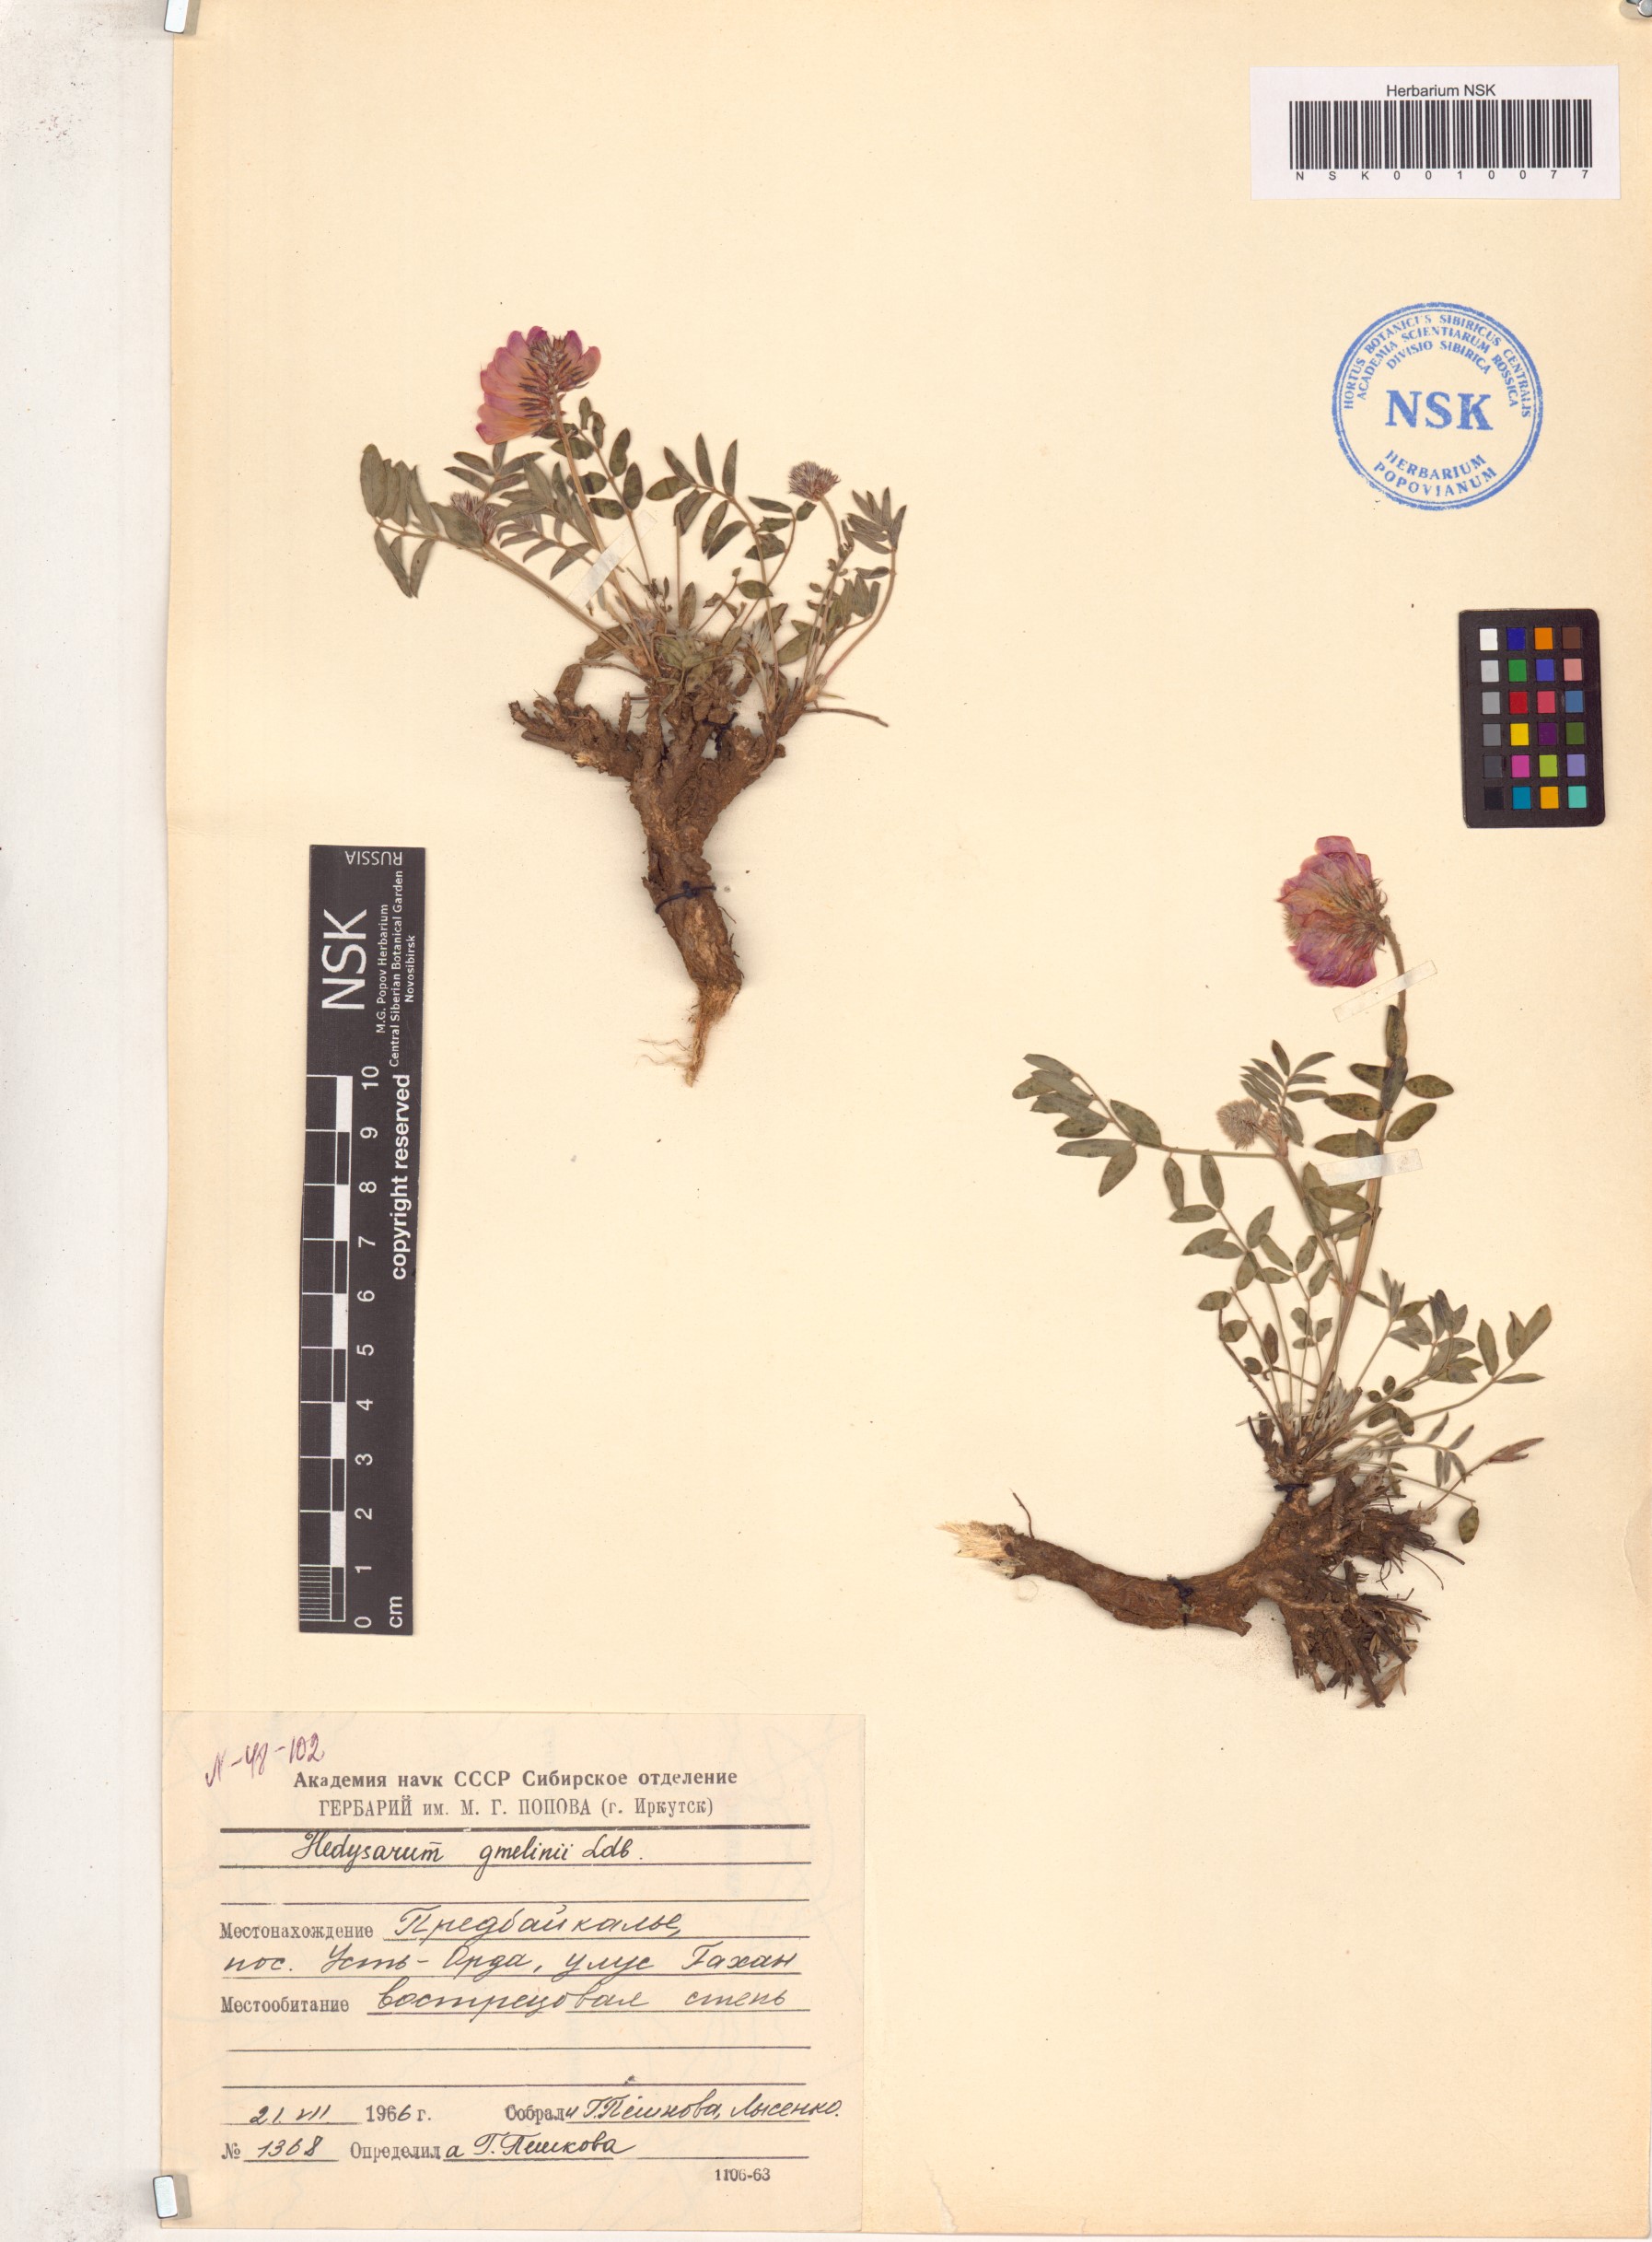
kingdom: Plantae
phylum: Tracheophyta
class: Magnoliopsida
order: Fabales
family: Fabaceae
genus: Hedysarum
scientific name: Hedysarum gmelinii
